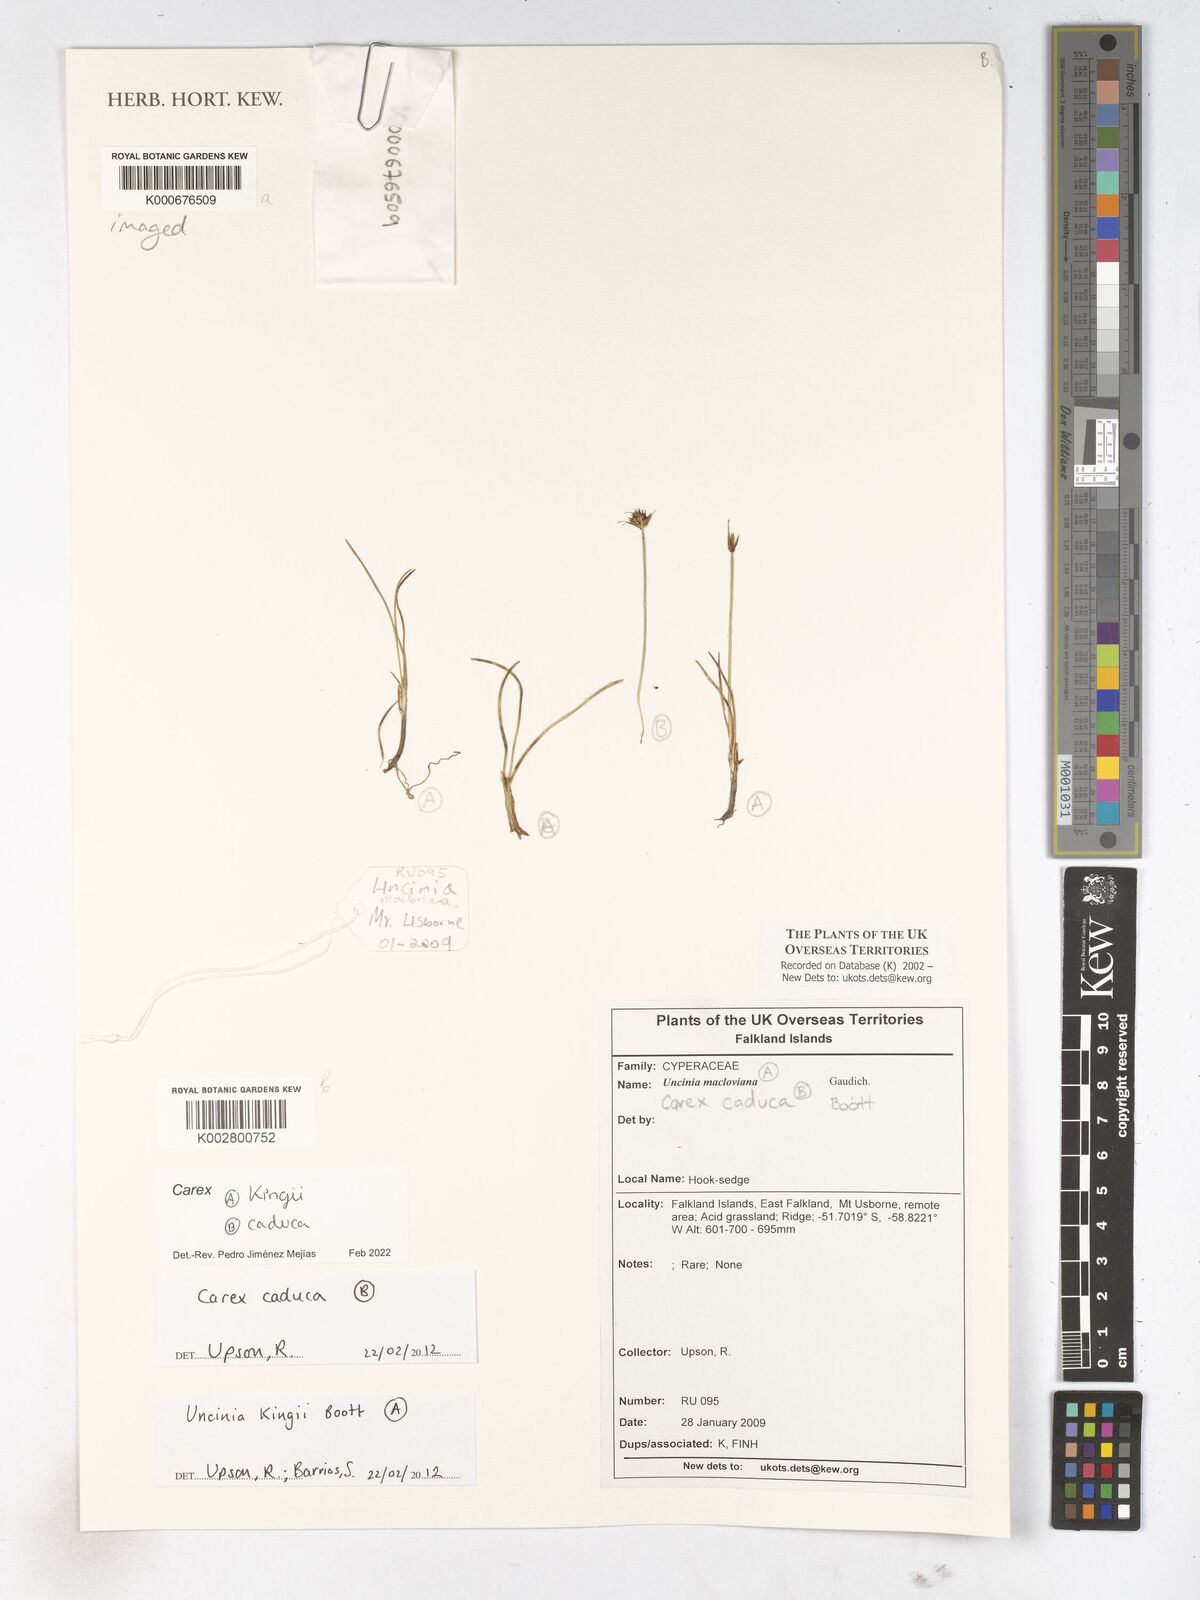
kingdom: Plantae
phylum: Tracheophyta
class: Liliopsida
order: Poales
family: Cyperaceae
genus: Carex
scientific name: Carex
